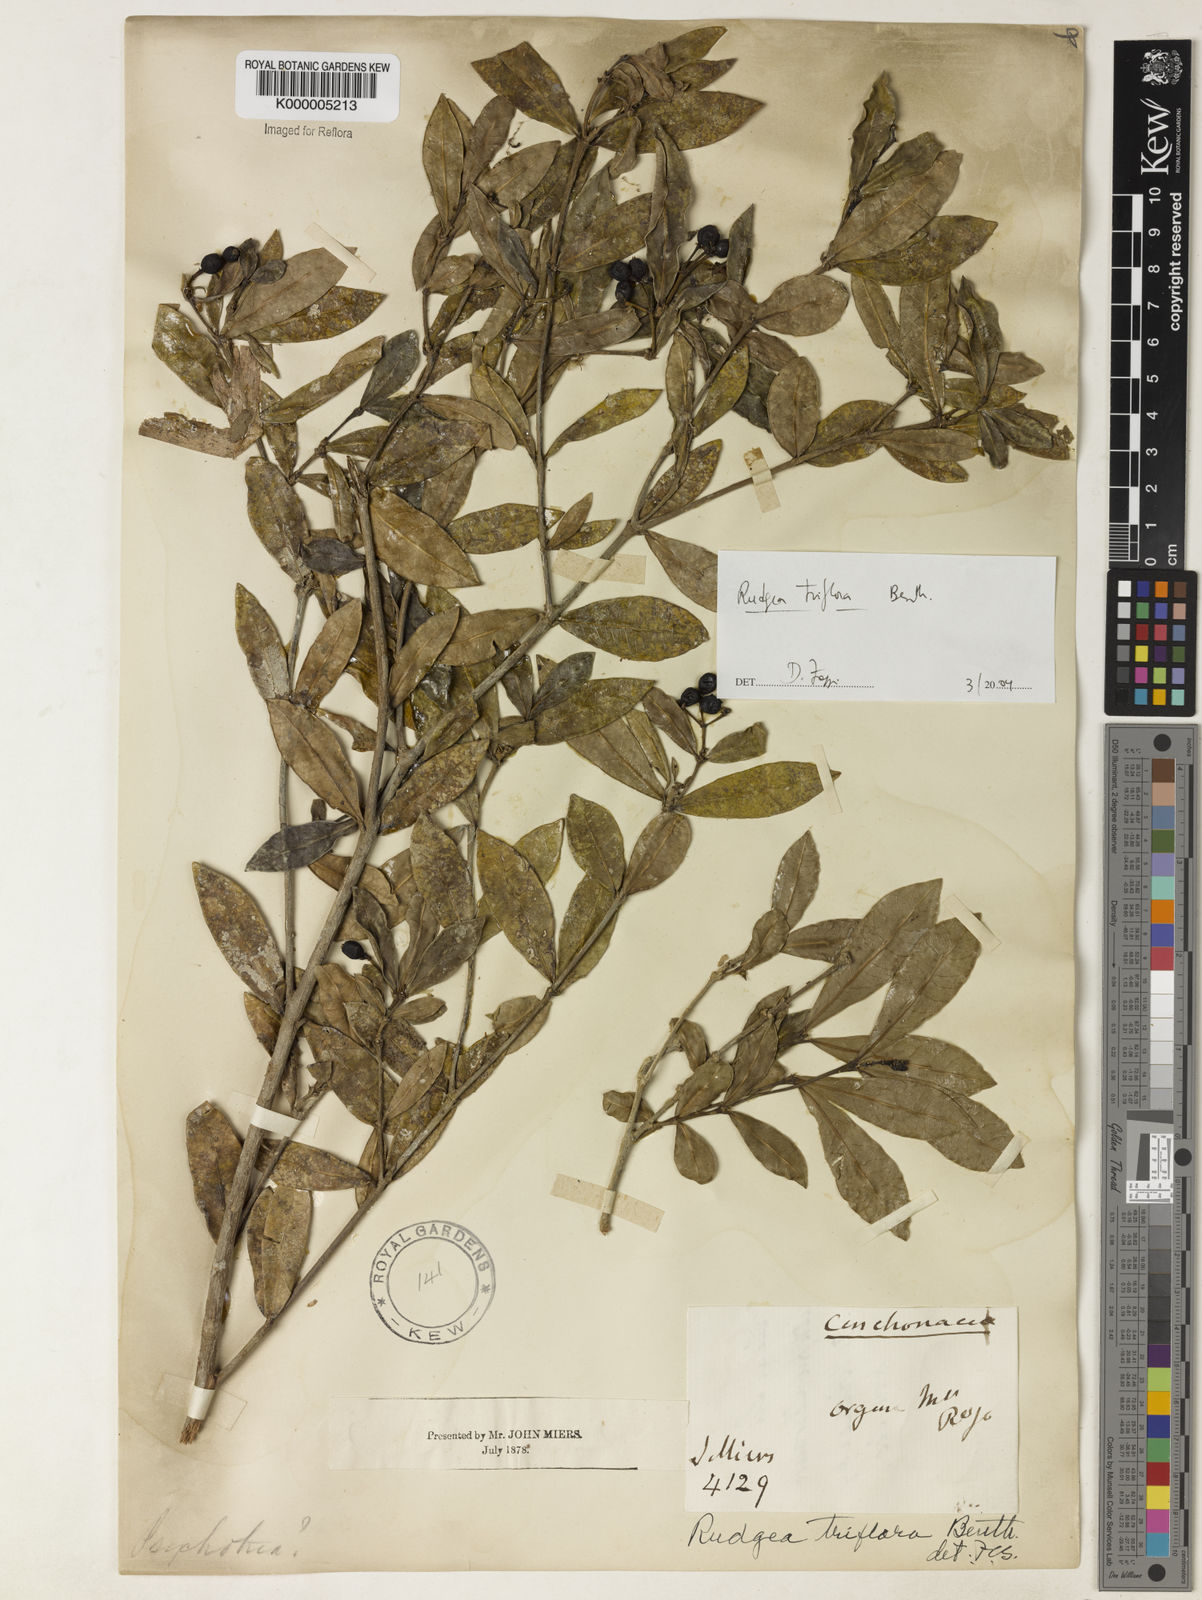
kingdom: Plantae
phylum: Tracheophyta
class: Magnoliopsida
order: Gentianales
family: Rubiaceae
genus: Rudgea
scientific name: Rudgea triflora
